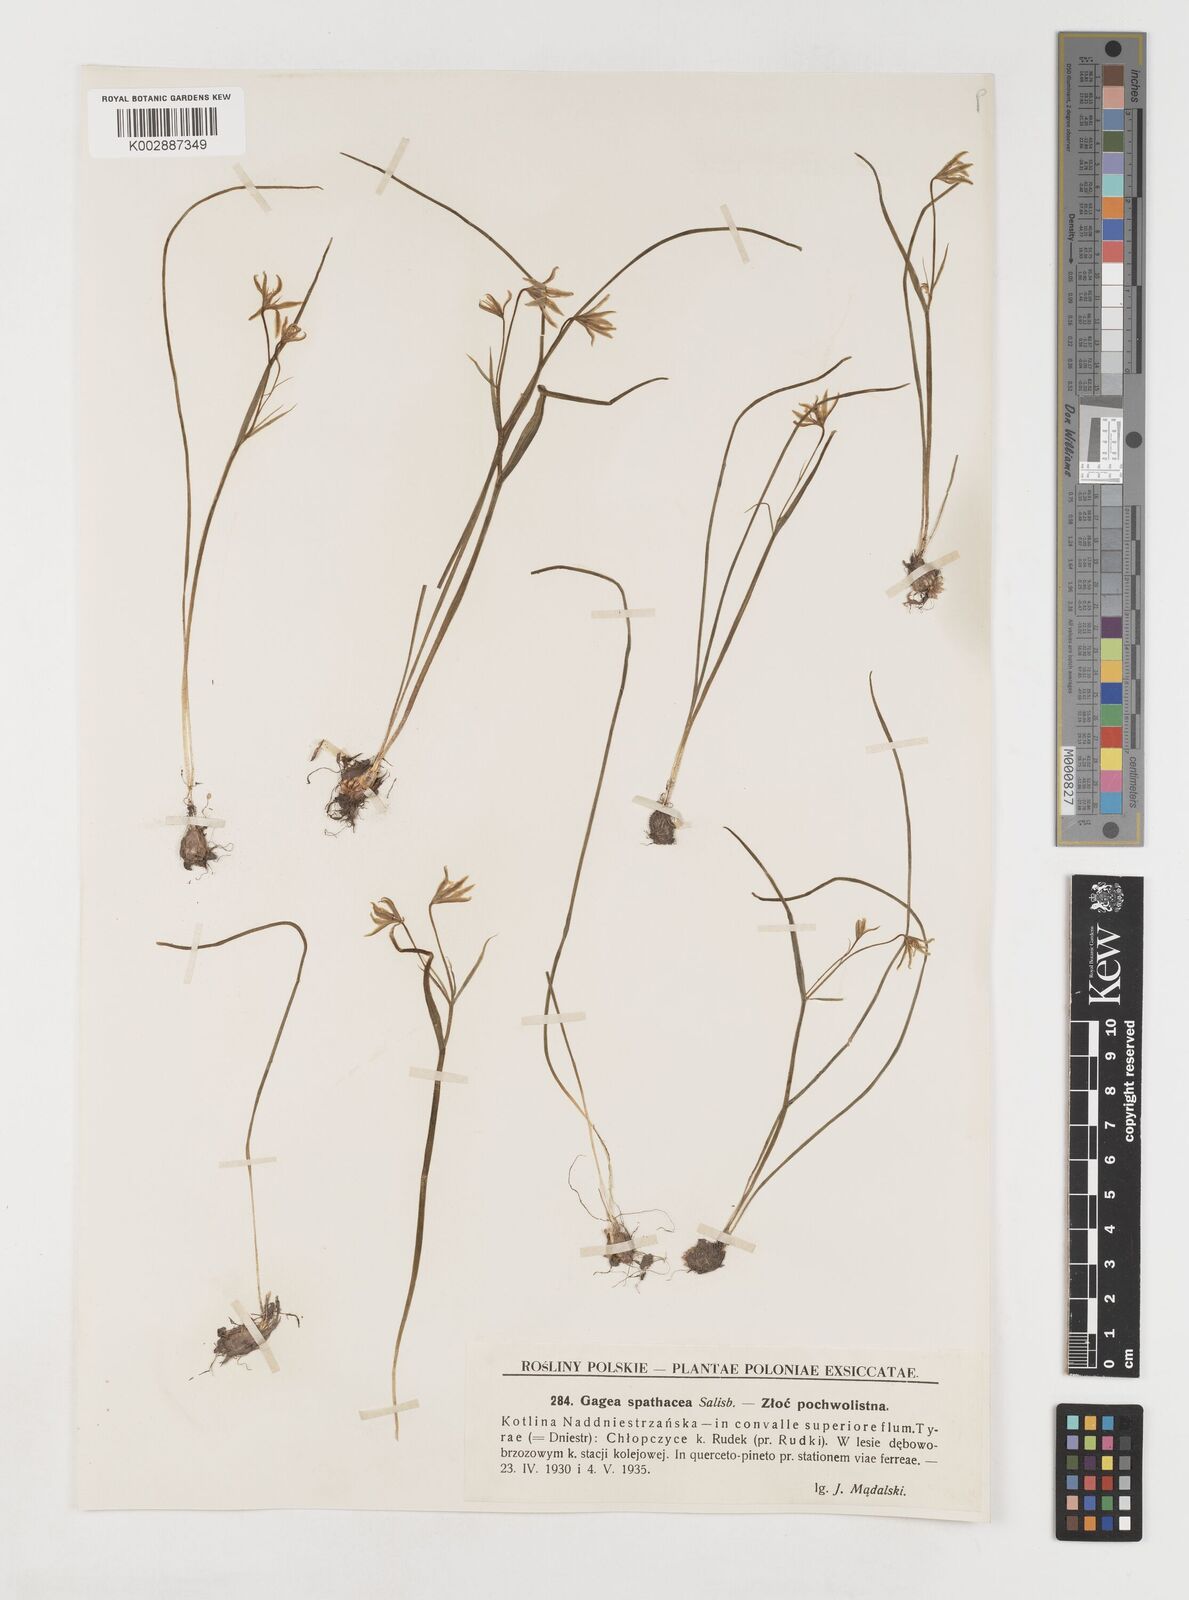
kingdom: Plantae
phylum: Tracheophyta
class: Liliopsida
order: Liliales
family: Liliaceae
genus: Gagea
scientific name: Gagea spathacea
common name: Belgian gagea
